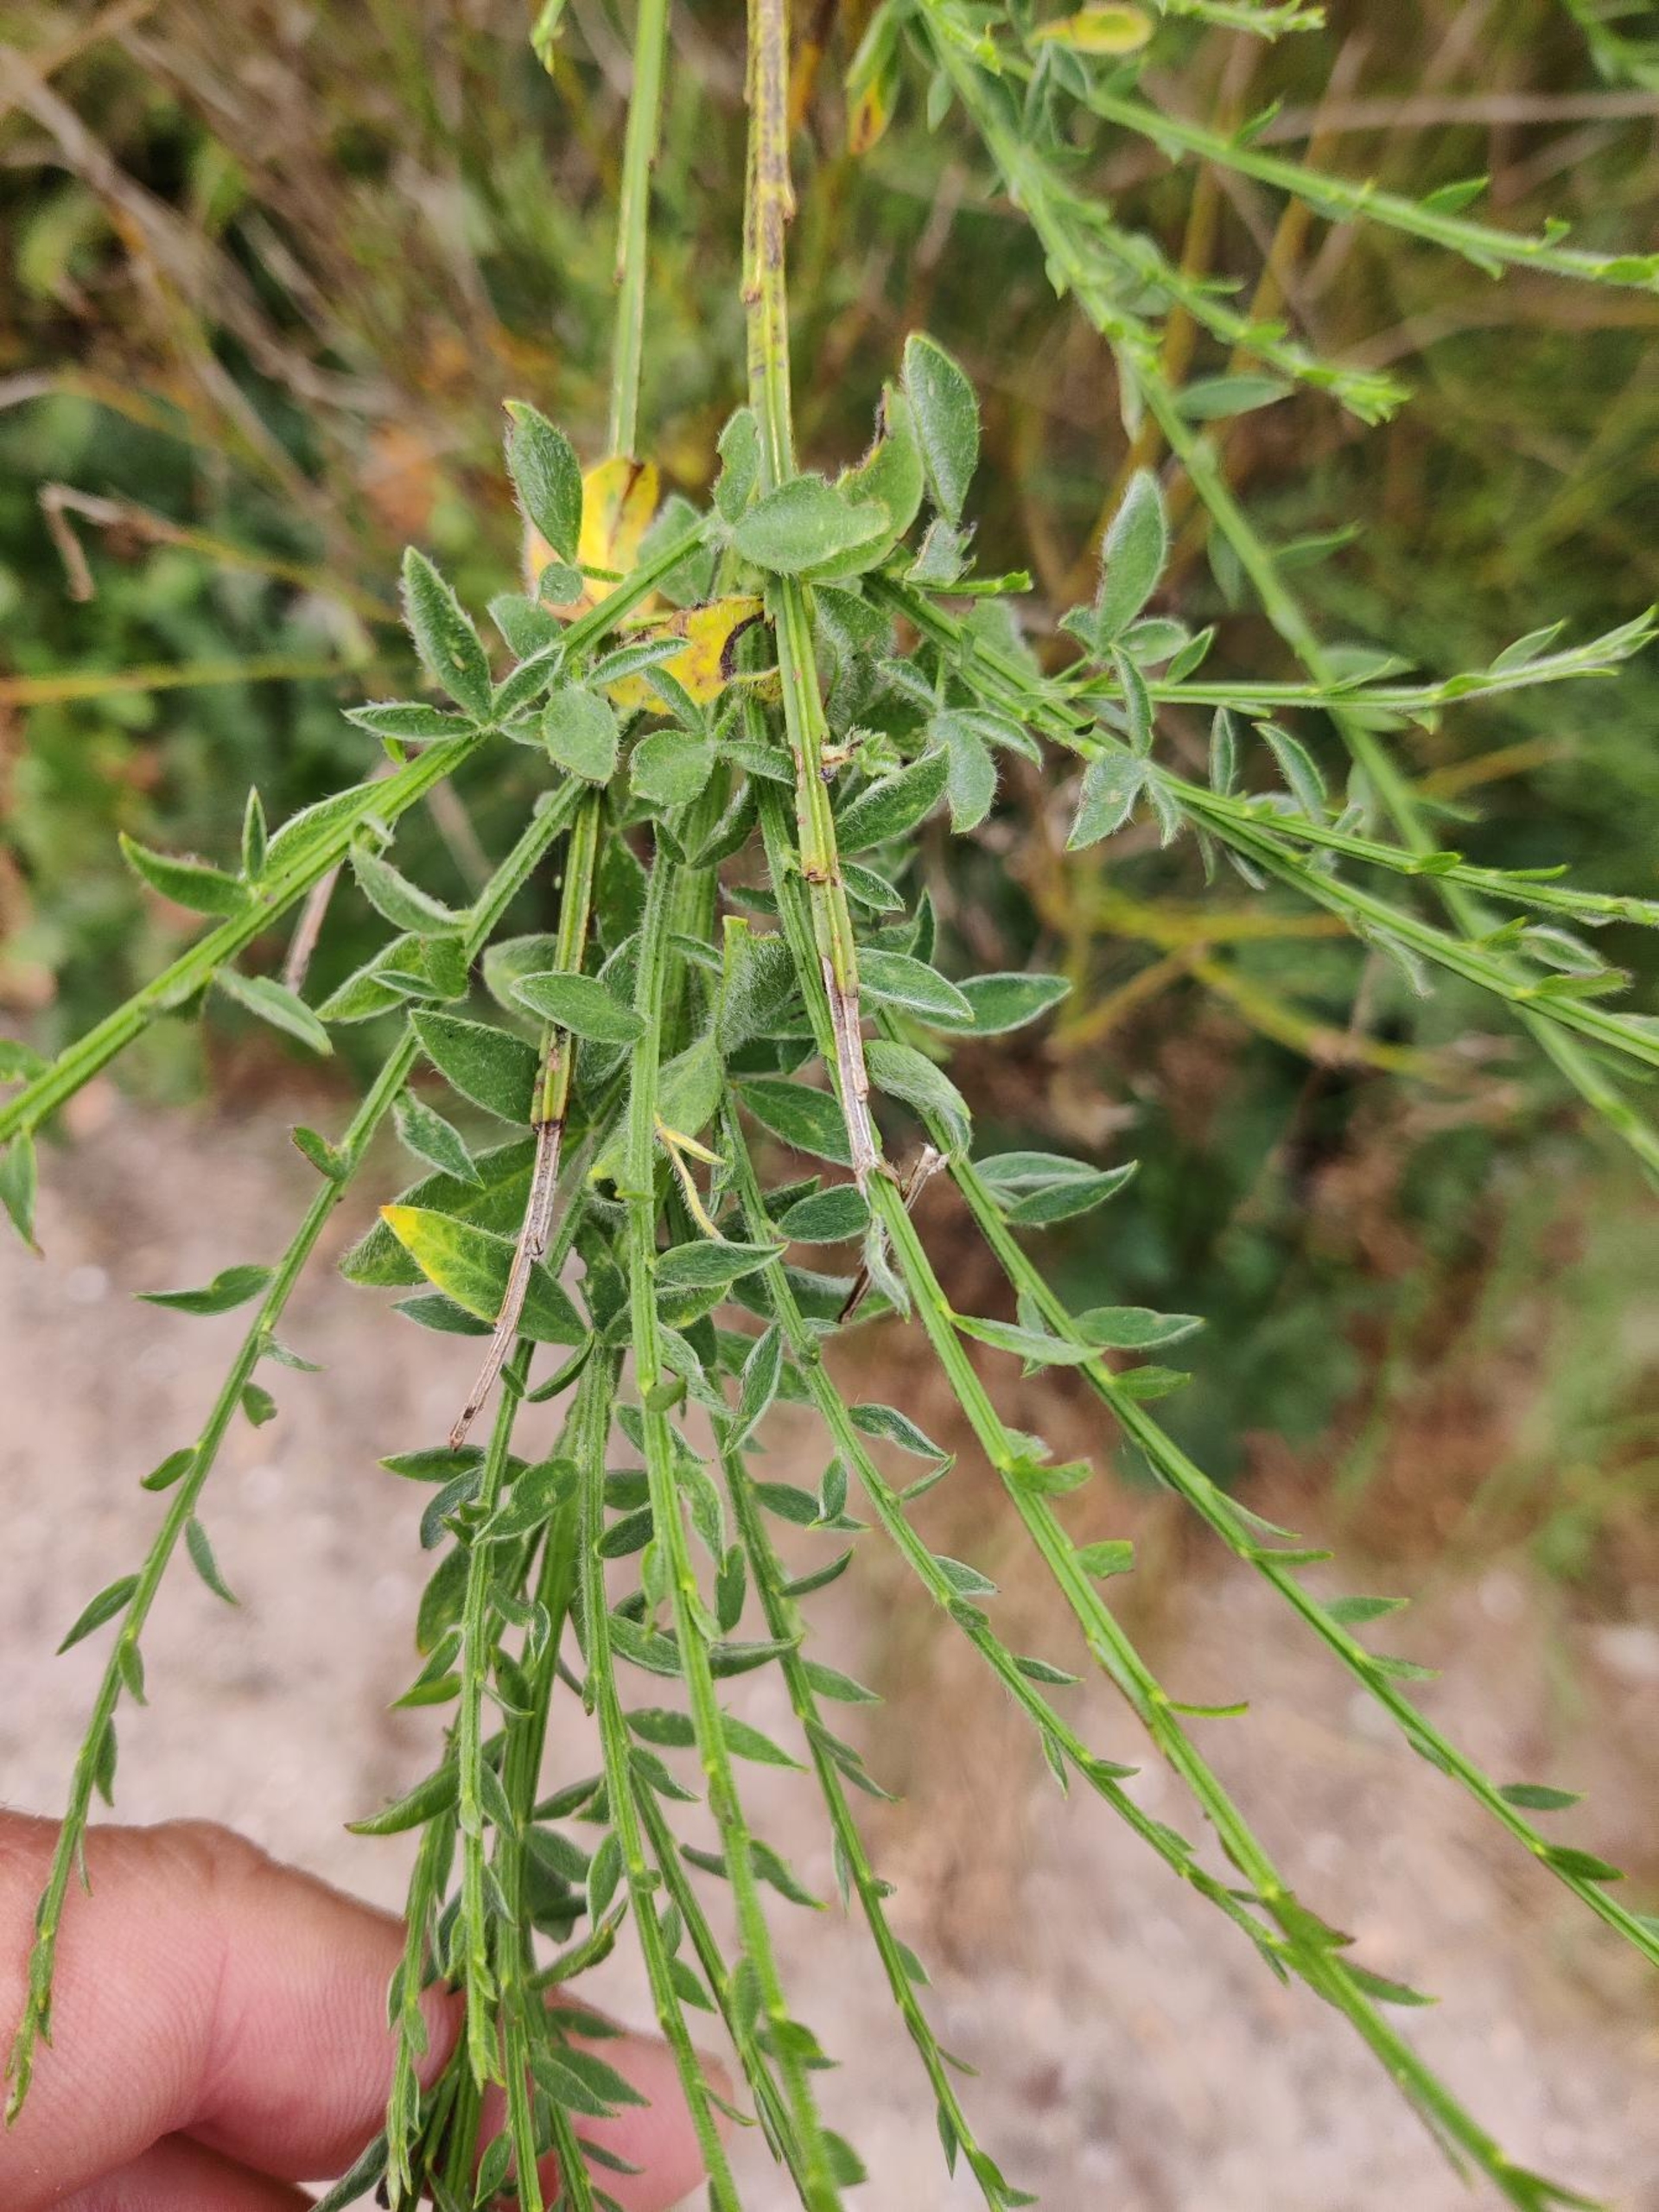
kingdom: Plantae
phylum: Tracheophyta
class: Magnoliopsida
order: Fabales
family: Fabaceae
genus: Cytisus
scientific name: Cytisus scoparius
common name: Almindelig gyvel
